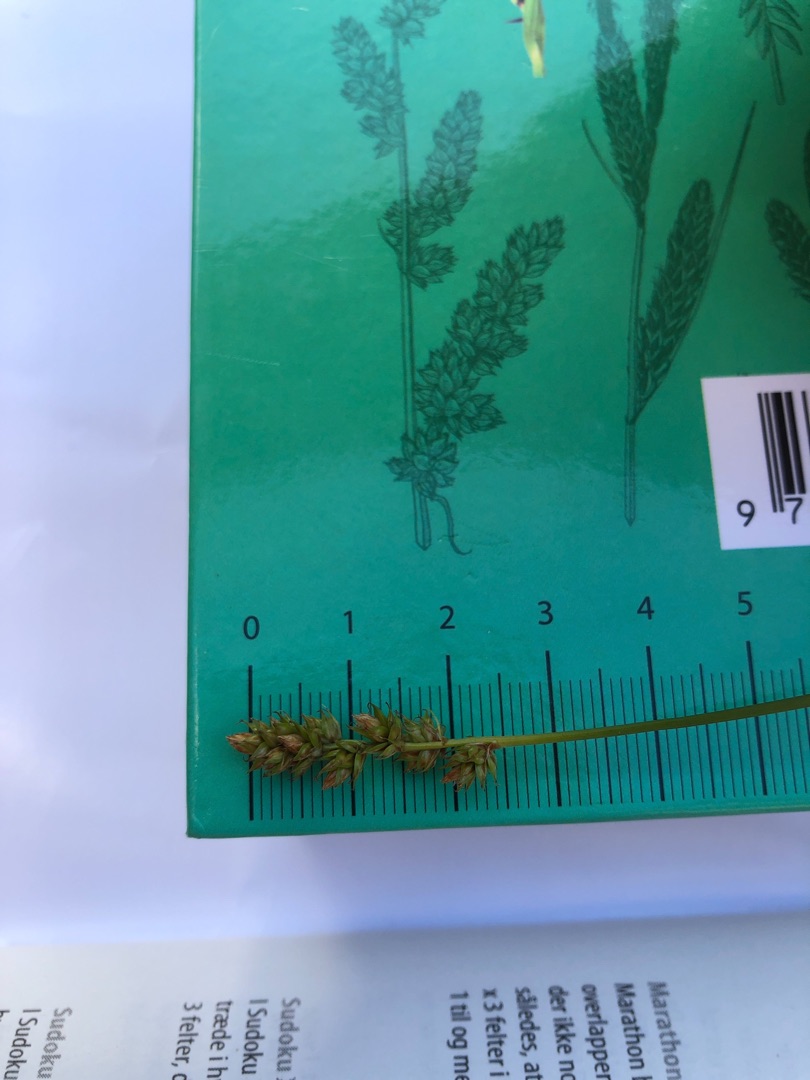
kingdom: Plantae
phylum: Tracheophyta
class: Liliopsida
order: Poales
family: Cyperaceae
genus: Carex
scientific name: Carex pairae
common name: Pigget star
